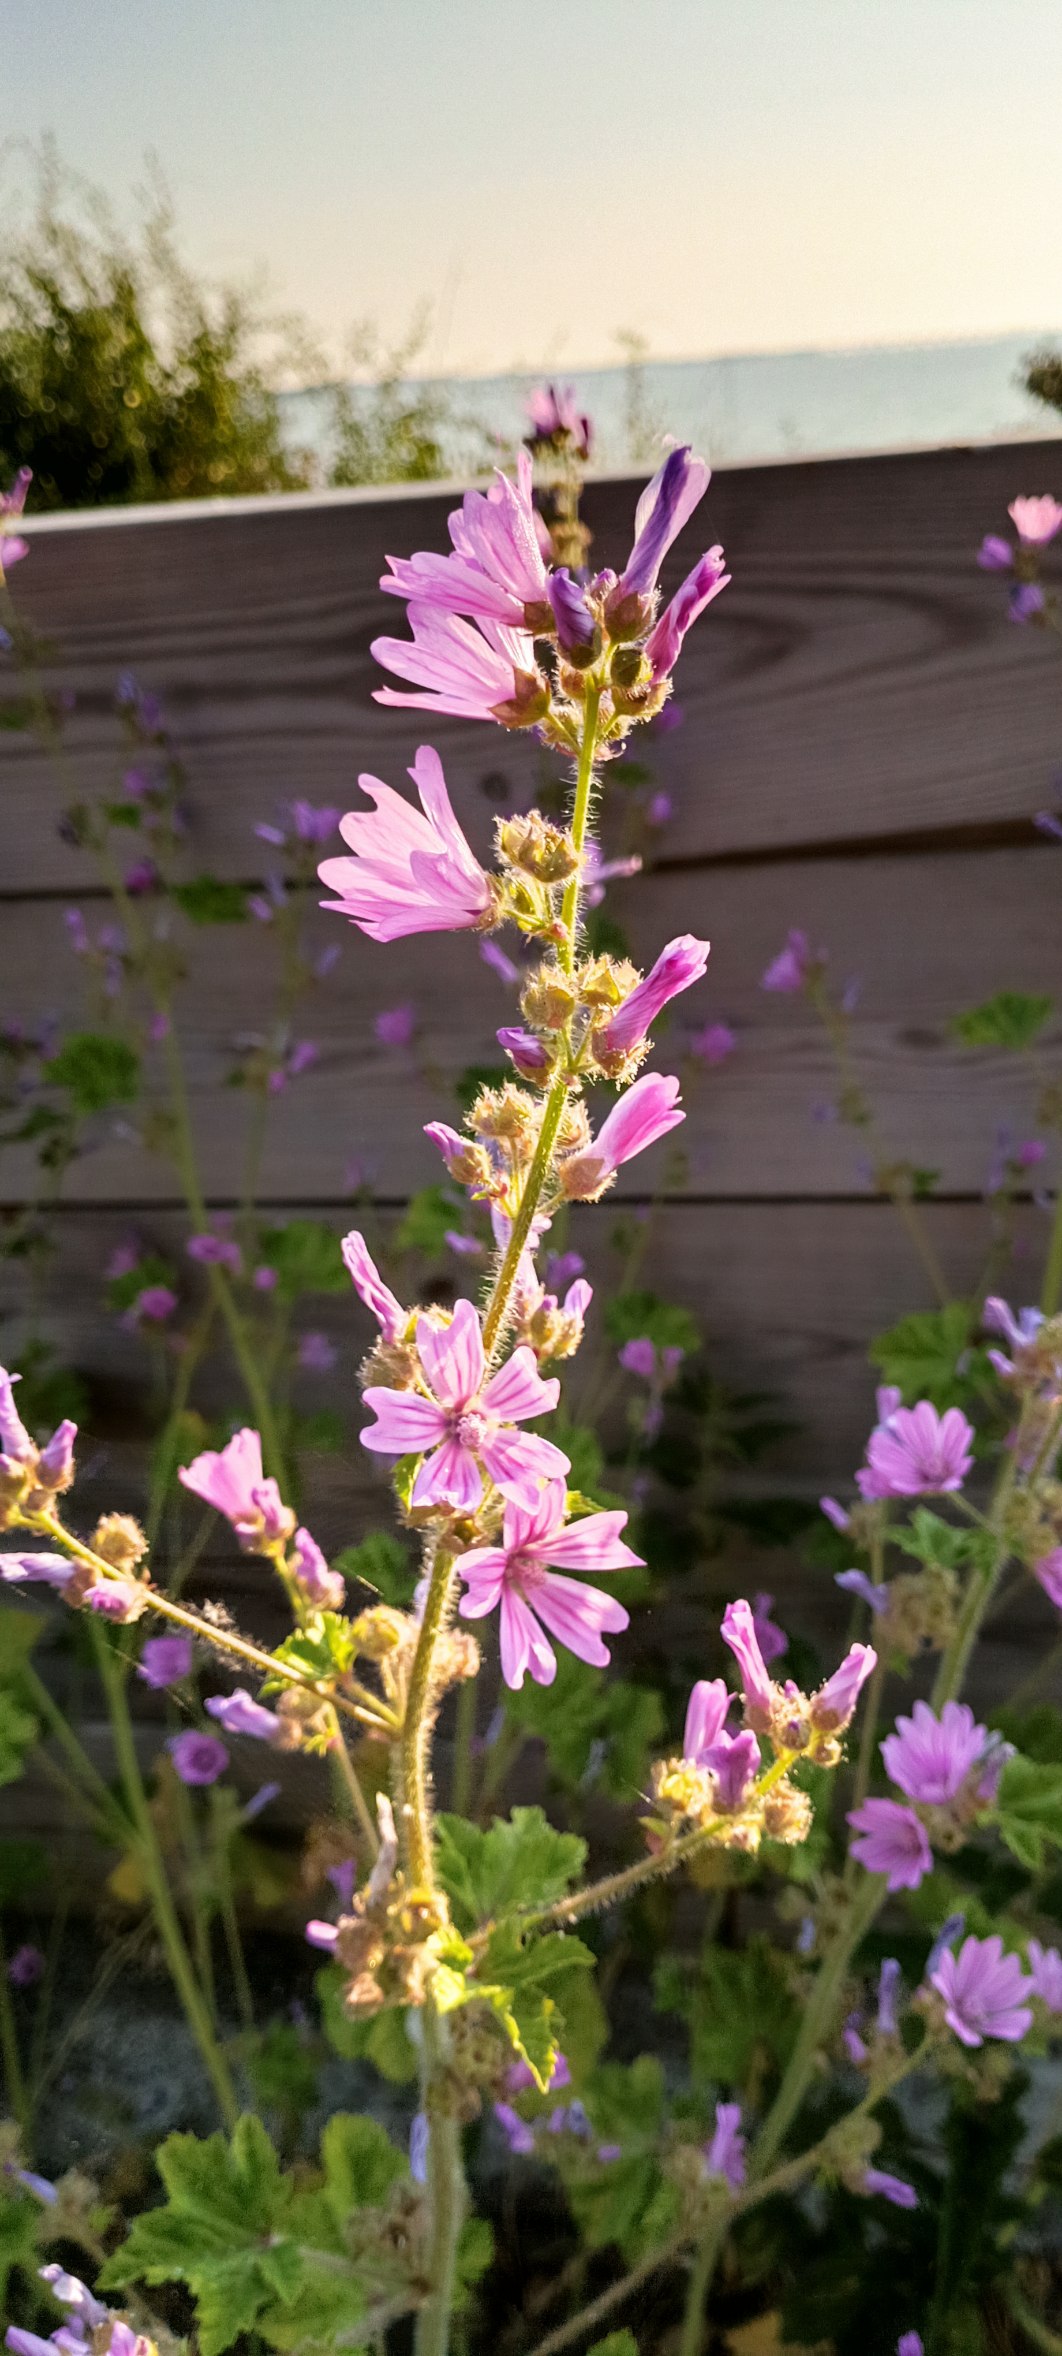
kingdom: Plantae
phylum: Tracheophyta
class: Magnoliopsida
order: Malvales
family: Malvaceae
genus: Malva
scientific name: Malva sylvestris
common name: Almindelig katost
